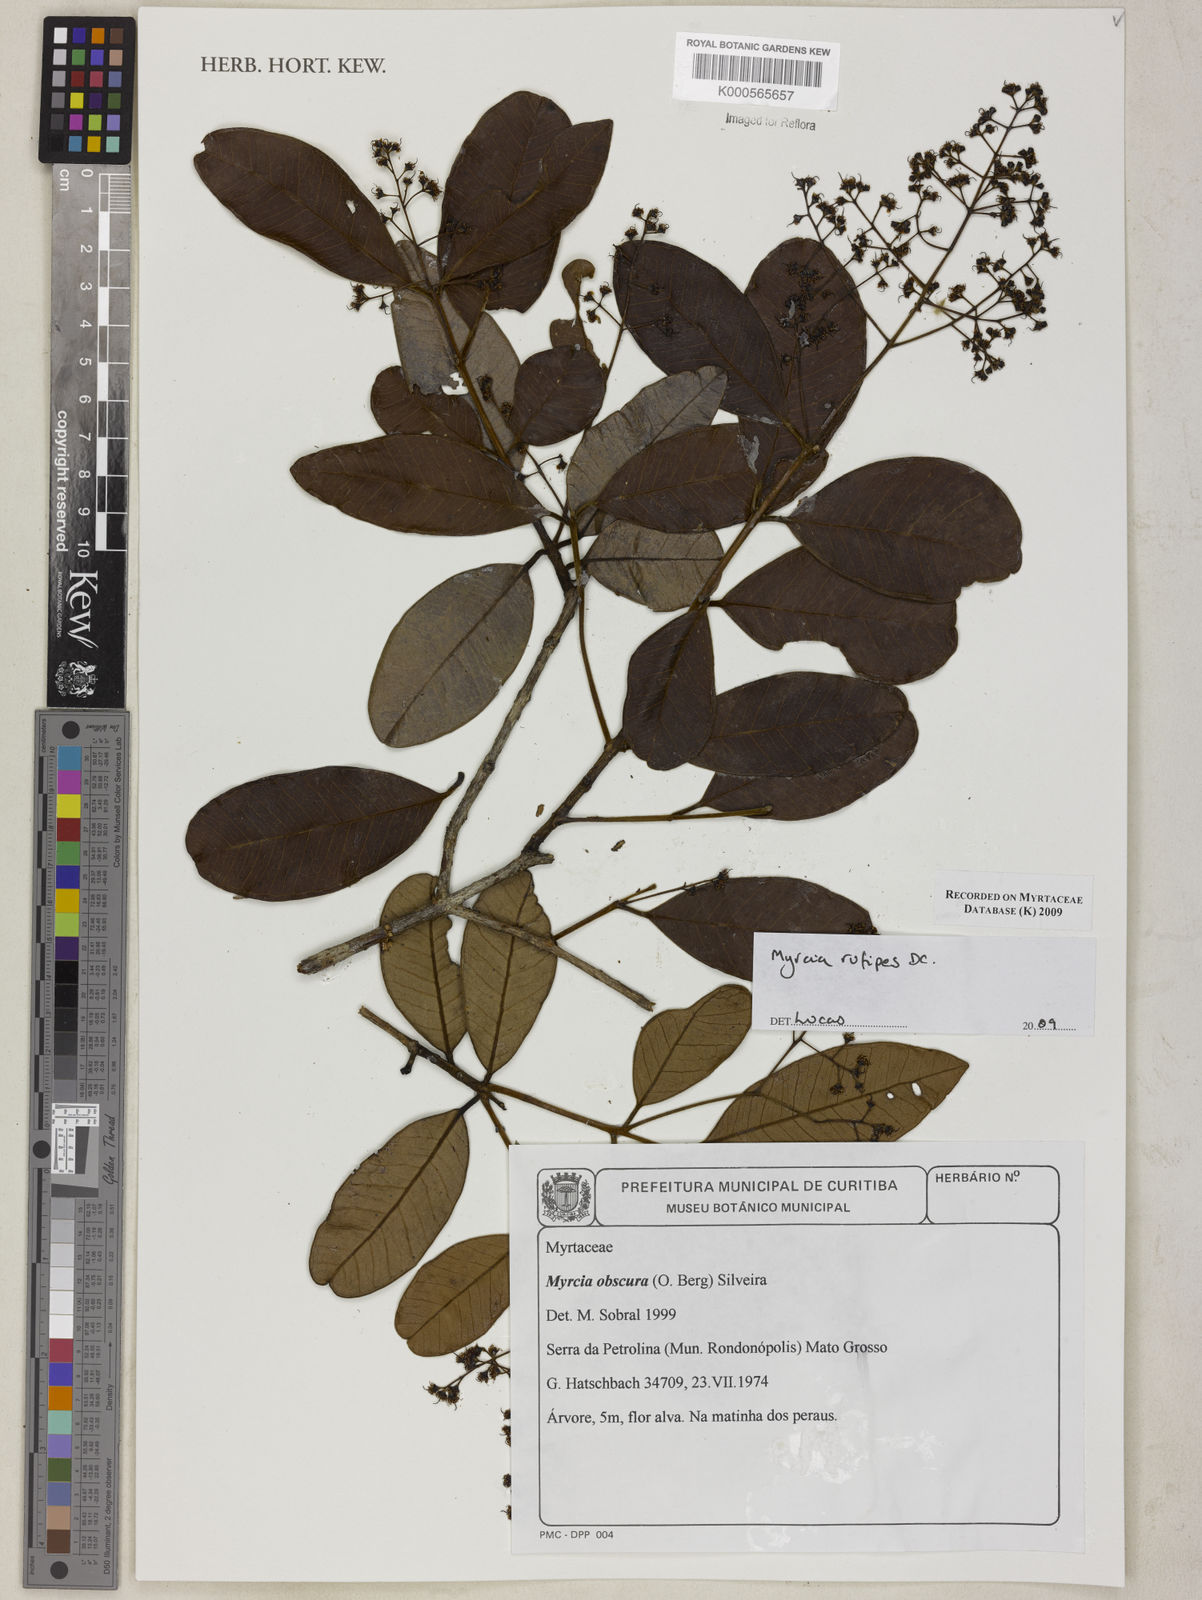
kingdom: Plantae
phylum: Tracheophyta
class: Magnoliopsida
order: Myrtales
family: Myrtaceae
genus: Myrcia
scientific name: Myrcia rufipes
